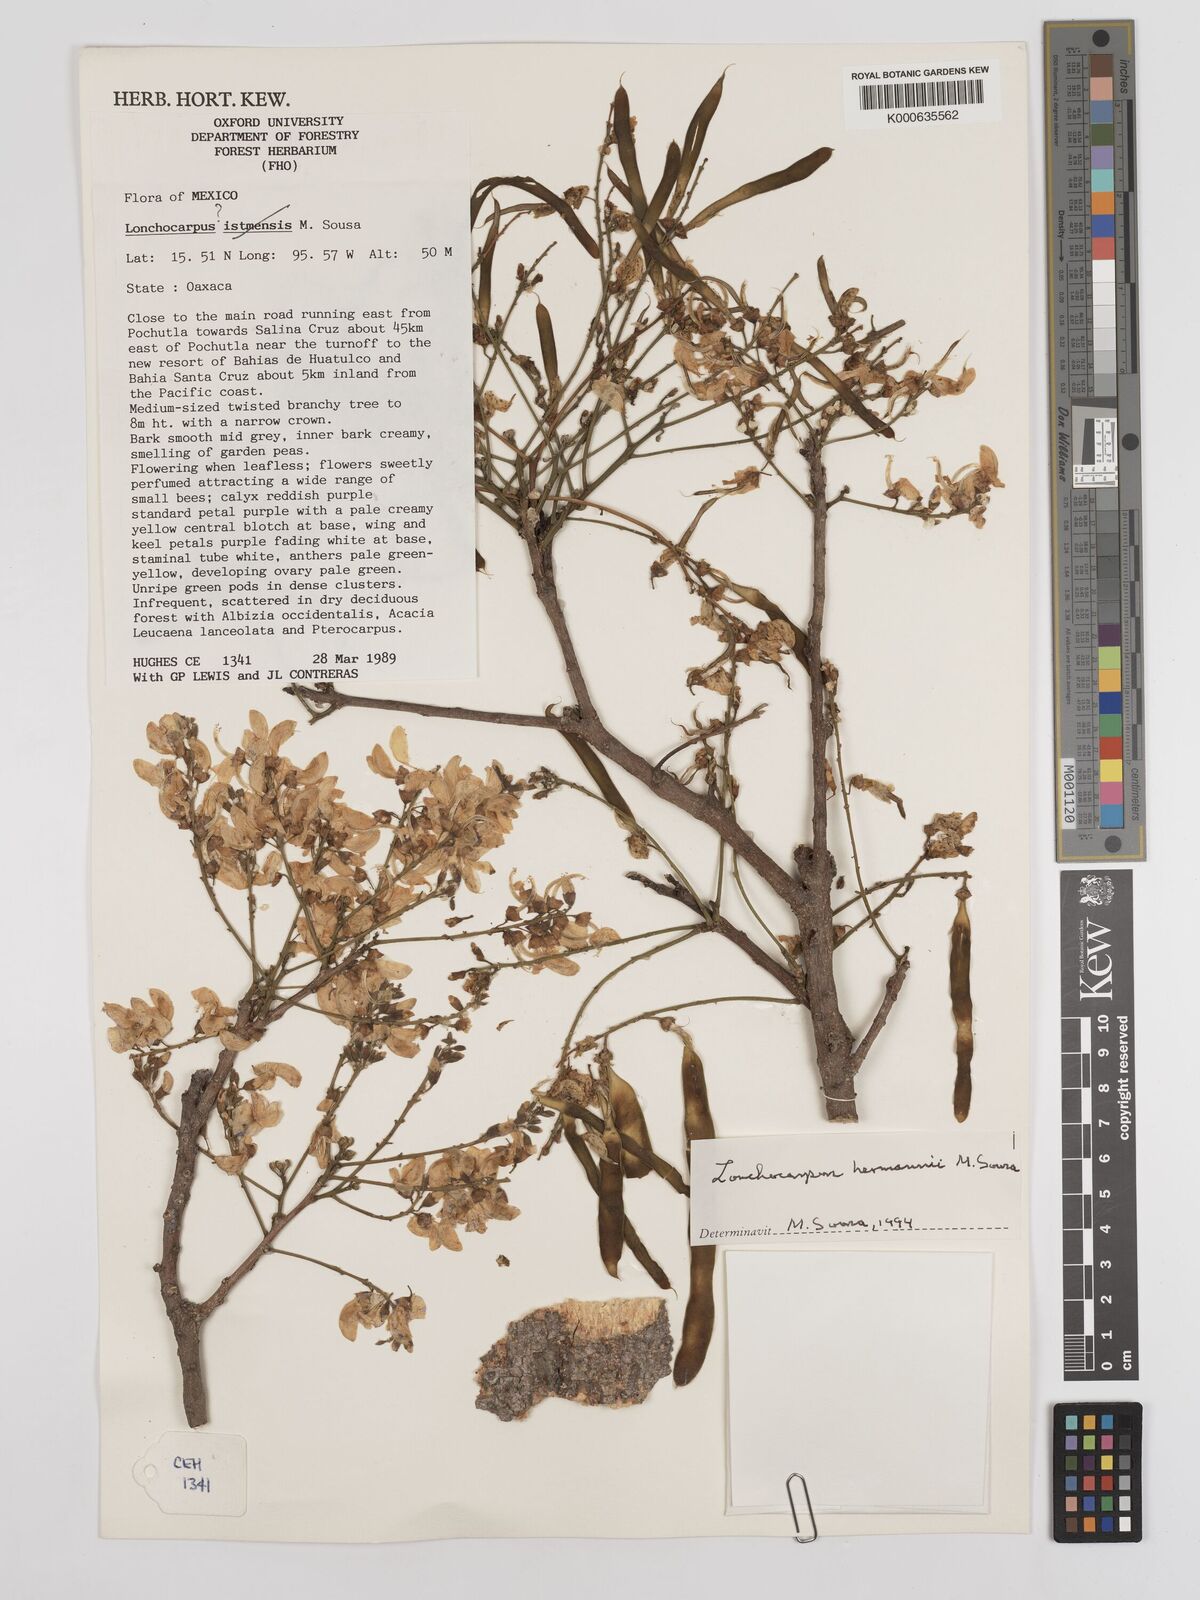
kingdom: Plantae
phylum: Tracheophyta
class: Magnoliopsida
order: Fabales
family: Fabaceae
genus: Lonchocarpus
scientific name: Lonchocarpus hermannii
